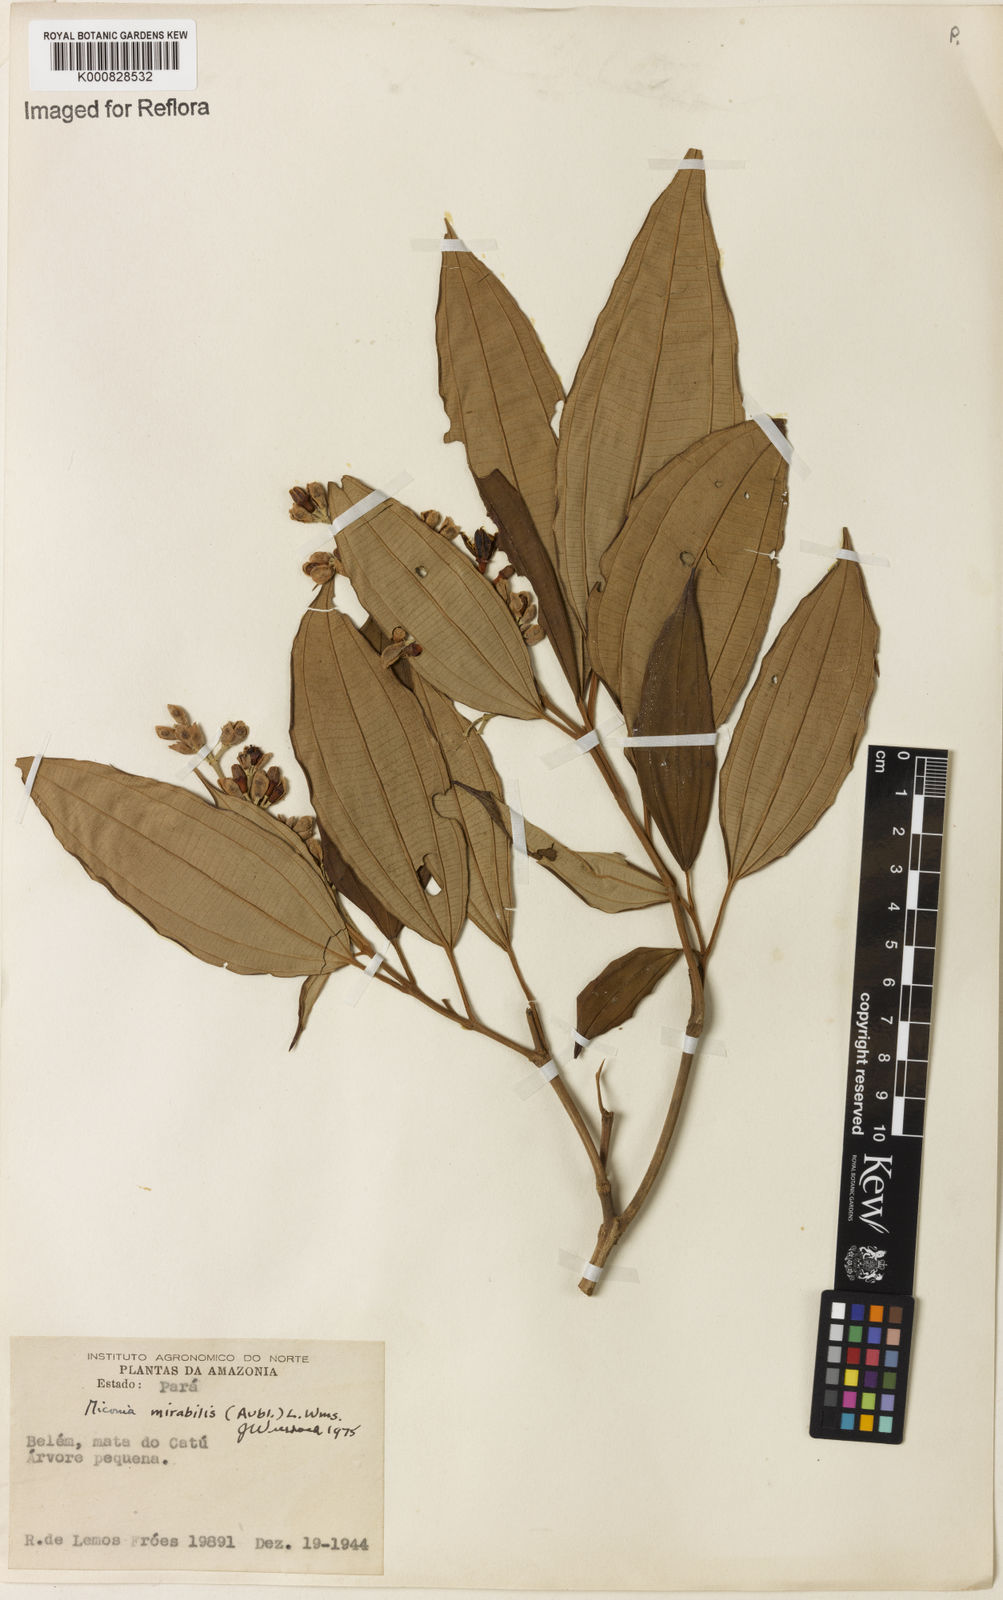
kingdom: Plantae
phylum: Tracheophyta
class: Magnoliopsida
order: Myrtales
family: Melastomataceae
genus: Miconia
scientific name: Miconia mirabilis
